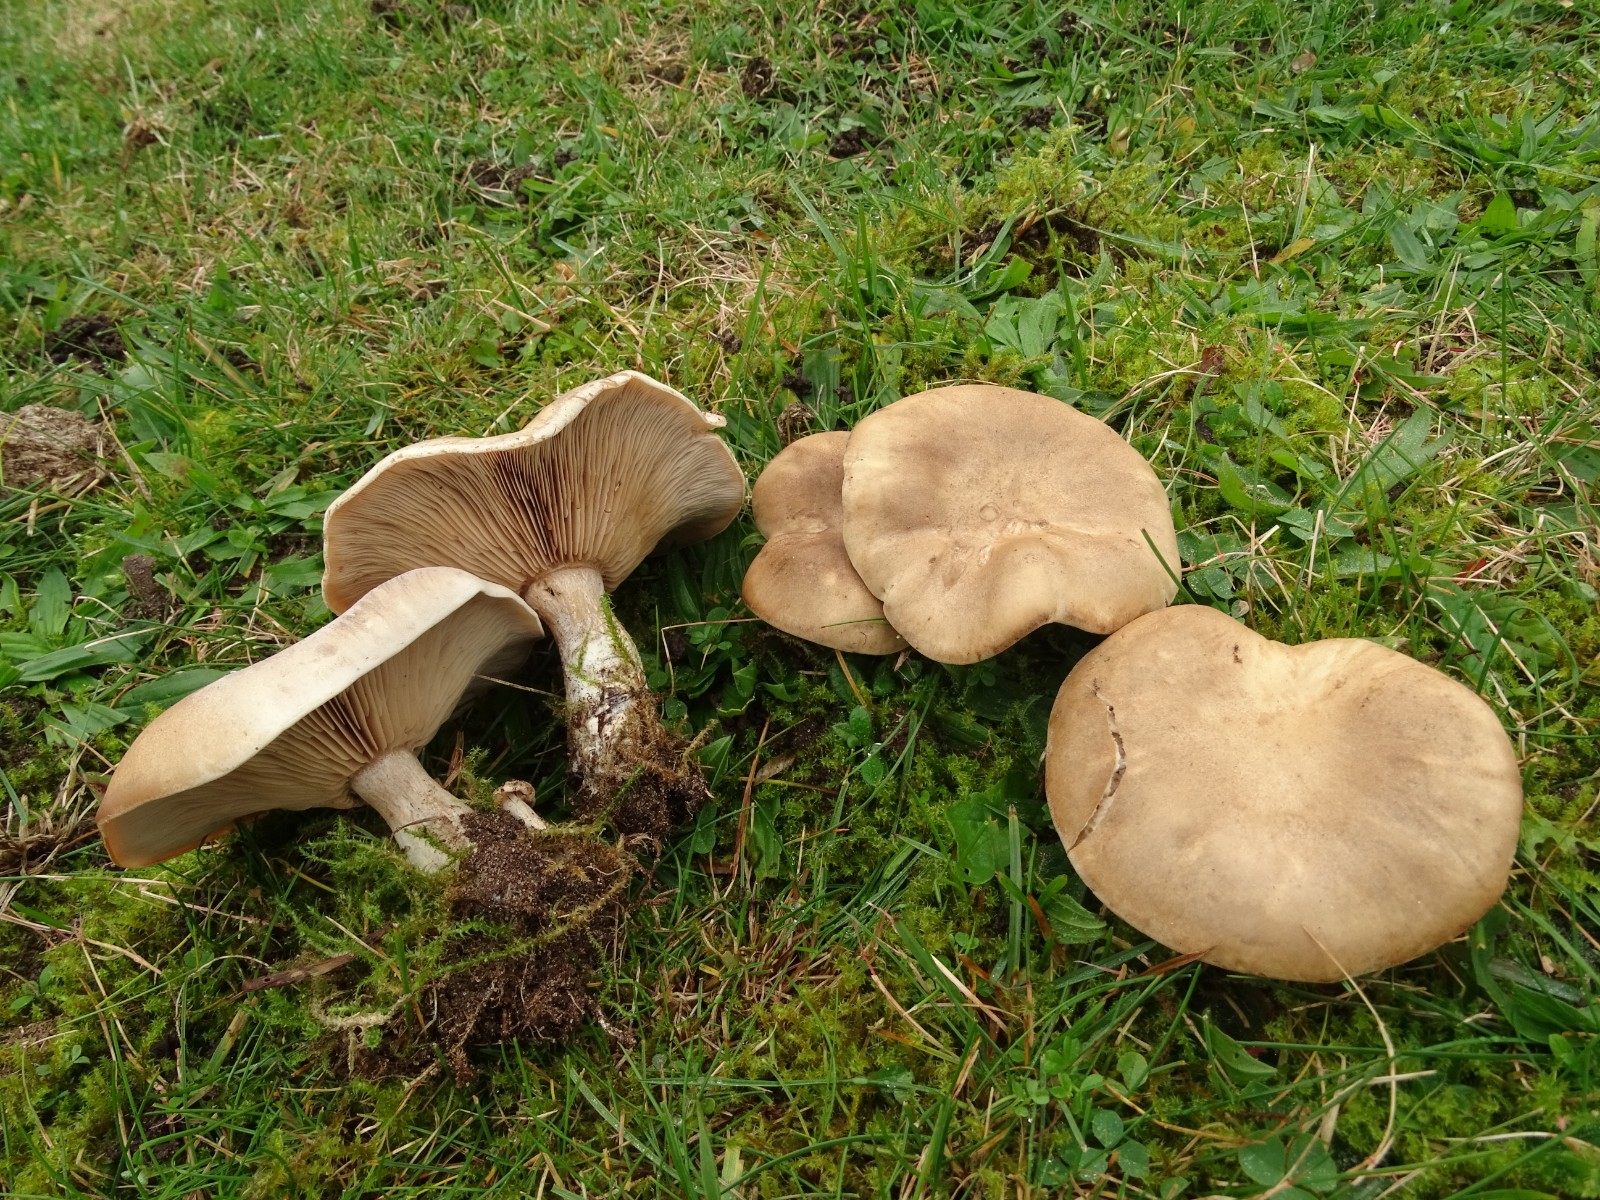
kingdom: Fungi
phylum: Basidiomycota
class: Agaricomycetes
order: Agaricales
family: Tricholomataceae
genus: Lepista
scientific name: Lepista panaeolus
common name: marmoreret hekseringshat
